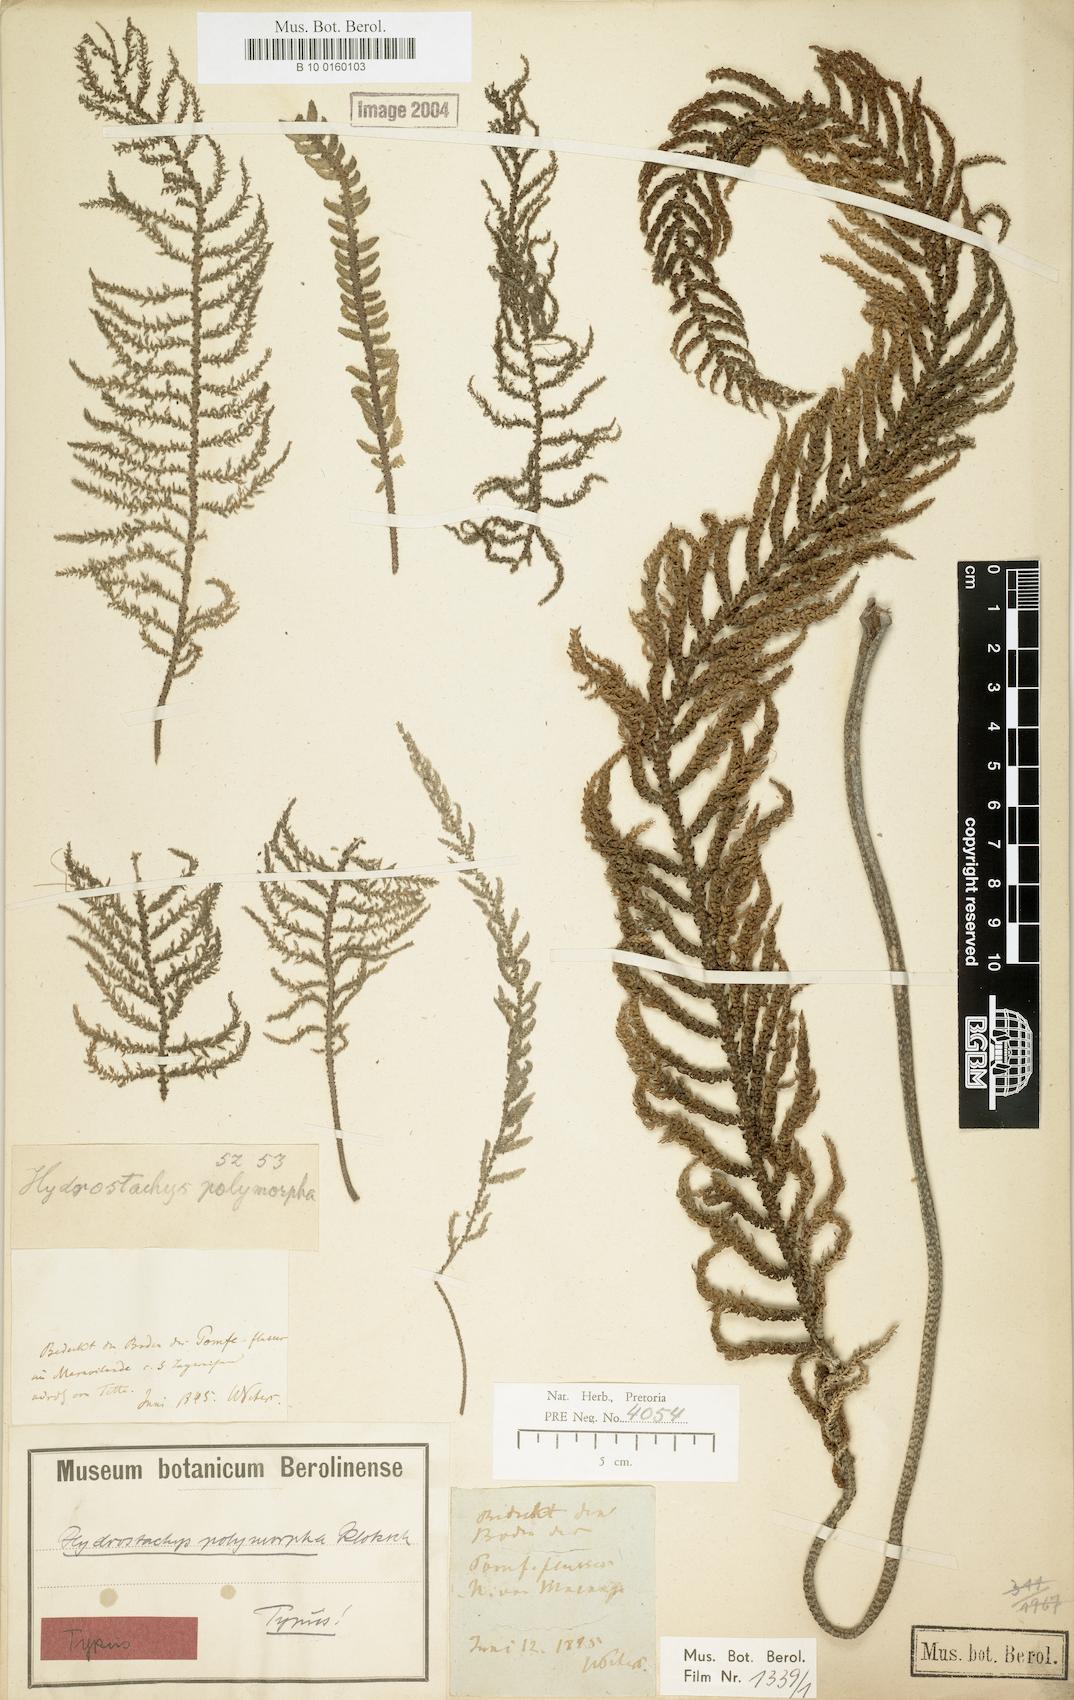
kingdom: Plantae
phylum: Tracheophyta
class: Magnoliopsida
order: Cornales
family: Hydrostachyaceae
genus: Hydrostachys
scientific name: Hydrostachys polymorpha
